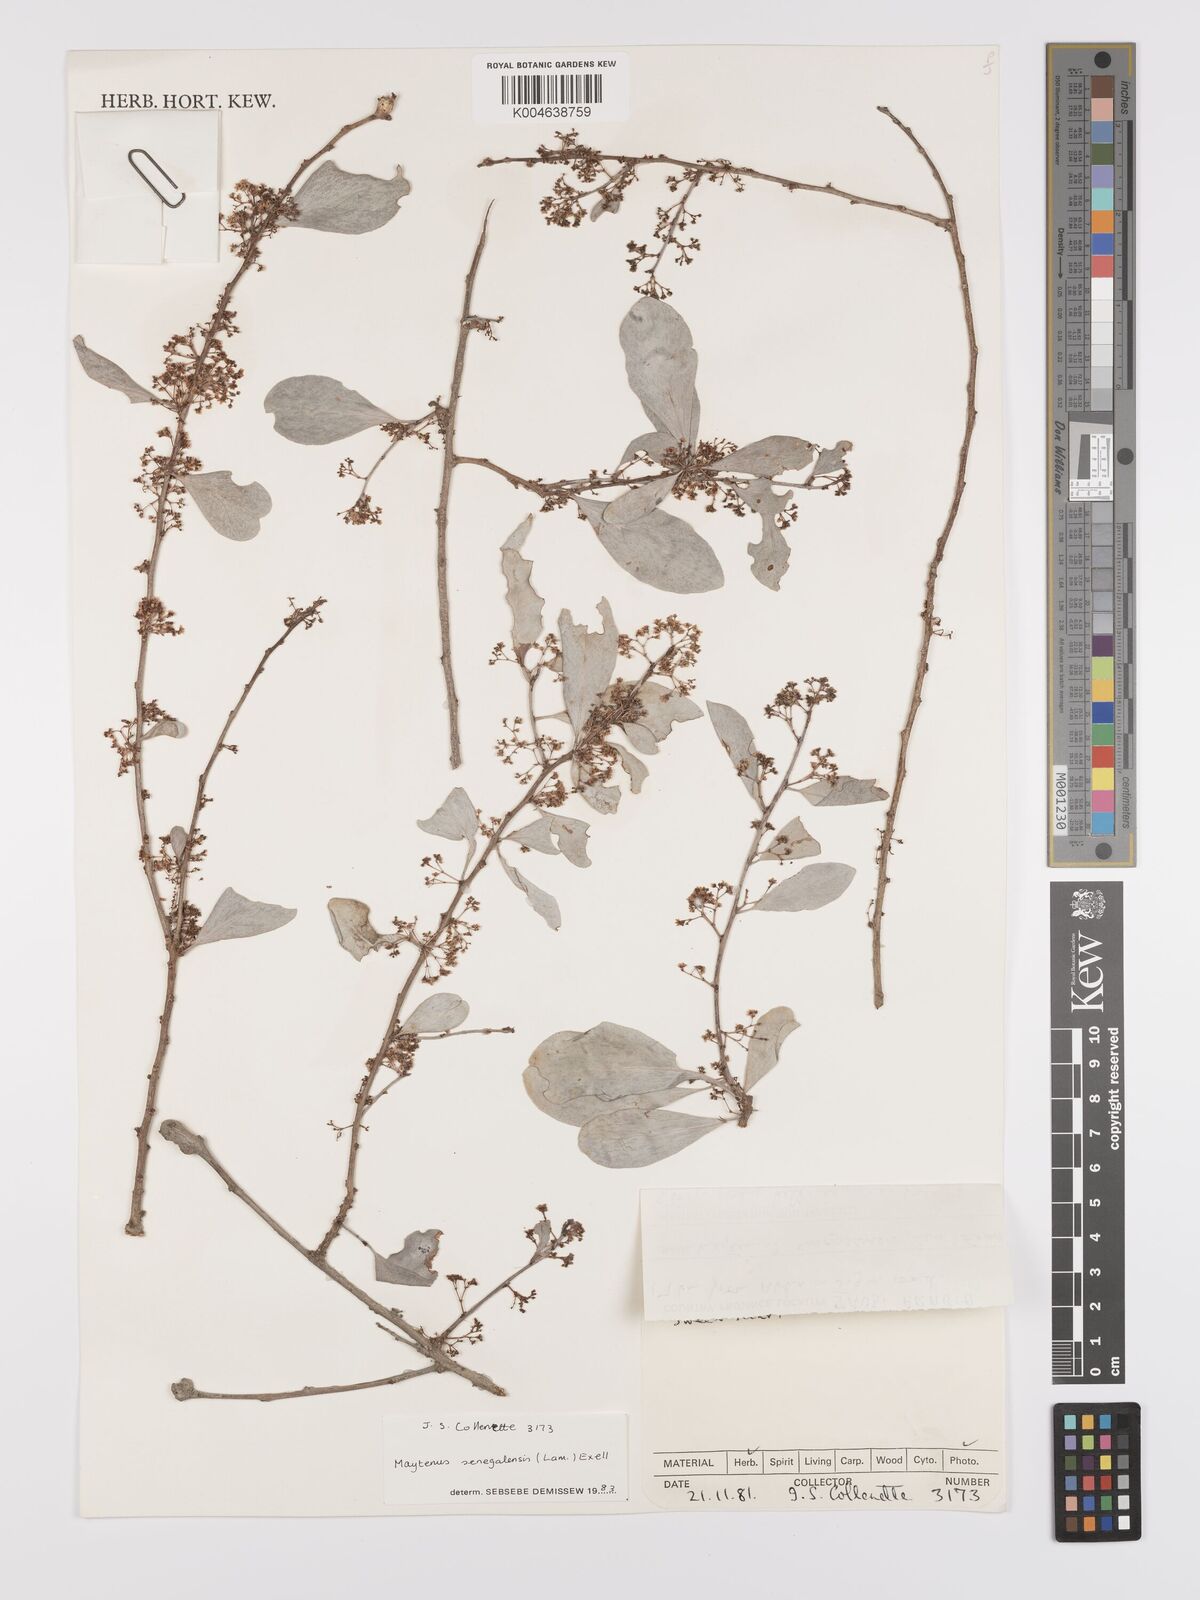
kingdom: Plantae
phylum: Tracheophyta
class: Magnoliopsida
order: Celastrales
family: Celastraceae
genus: Gymnosporia
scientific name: Gymnosporia senegalensis
